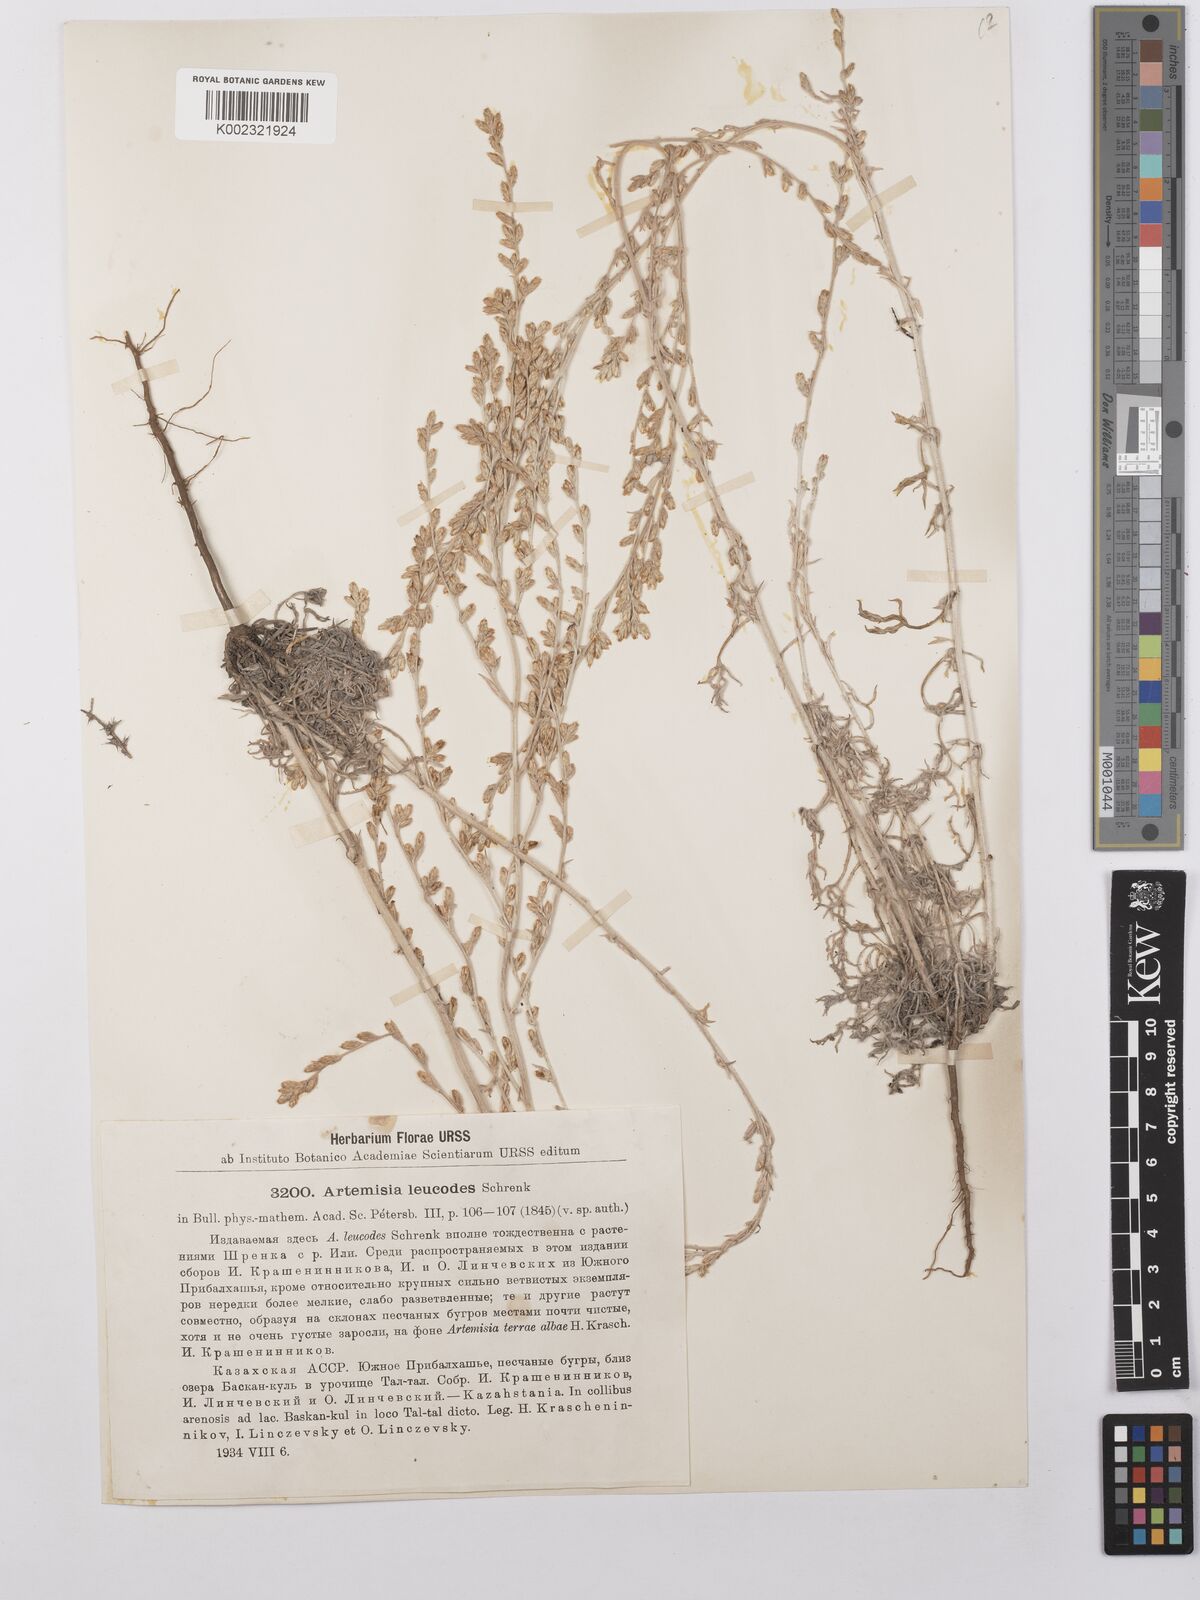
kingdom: Plantae
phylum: Tracheophyta
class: Magnoliopsida
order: Asterales
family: Asteraceae
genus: Artemisia
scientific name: Artemisia leucodes
